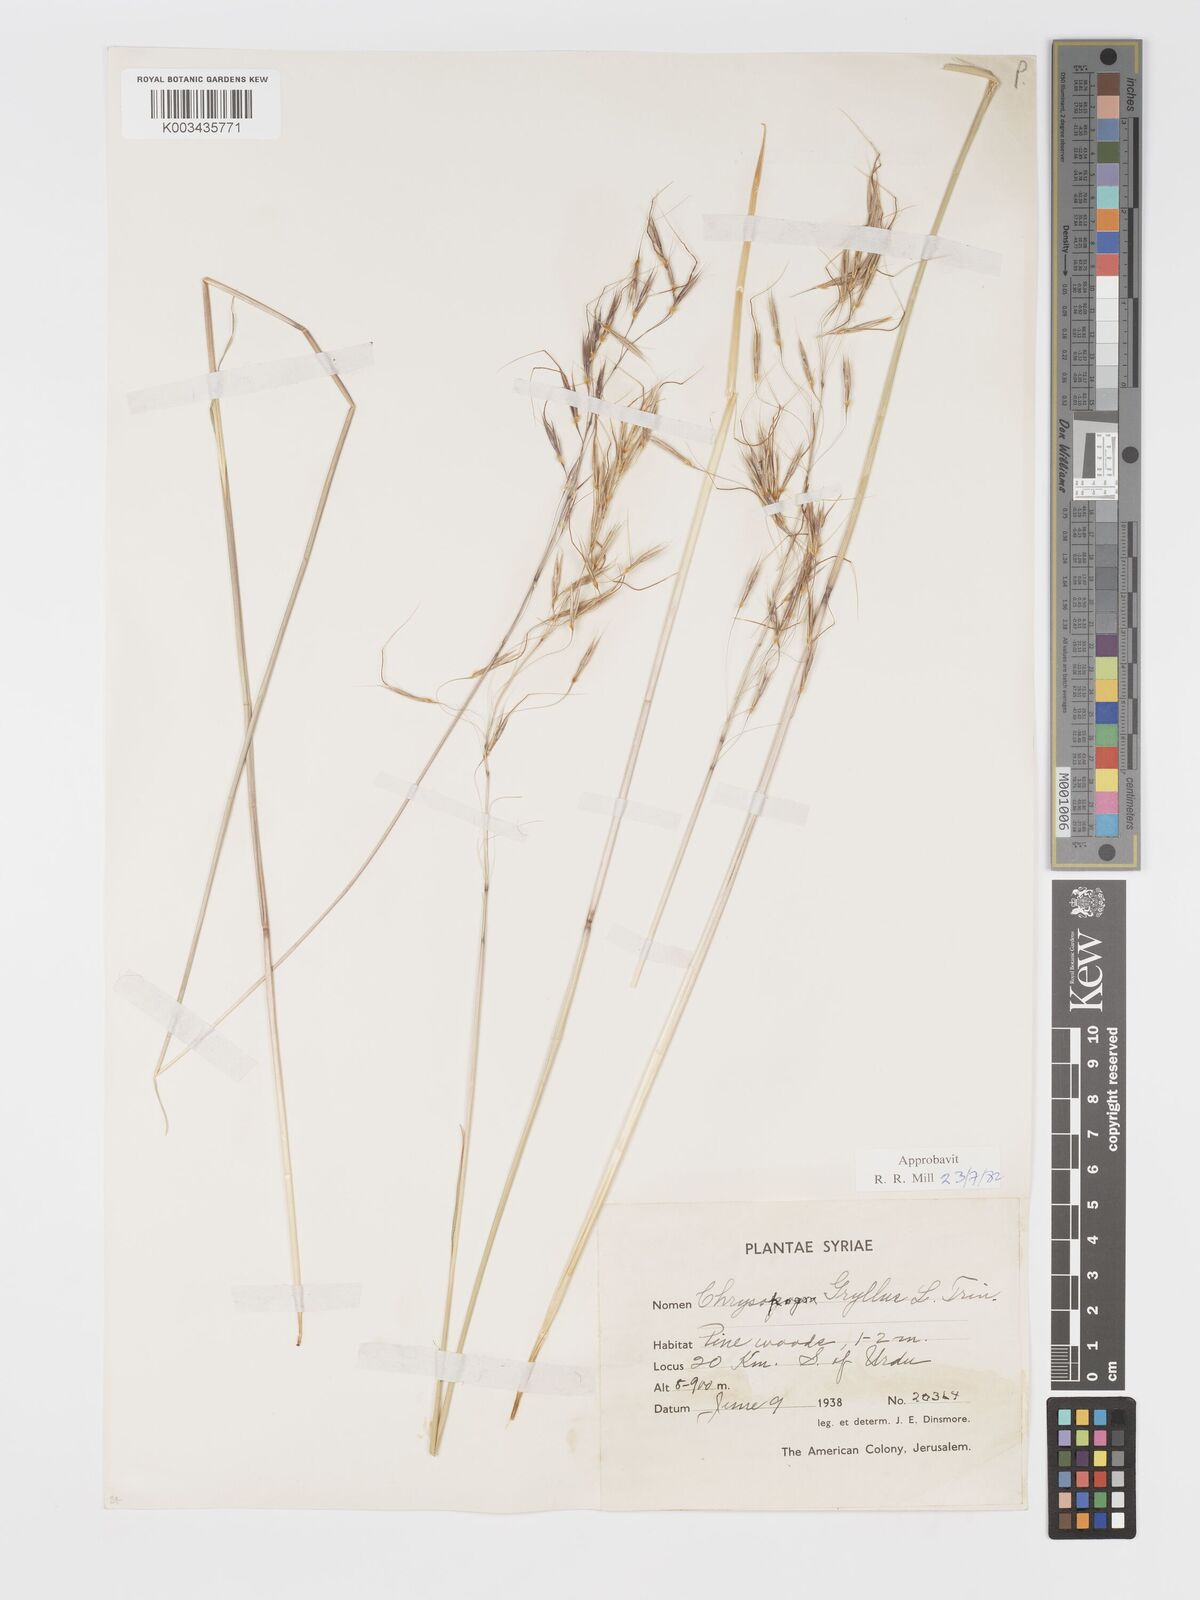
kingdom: Plantae
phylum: Tracheophyta
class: Liliopsida
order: Poales
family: Poaceae
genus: Chrysopogon
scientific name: Chrysopogon gryllus
